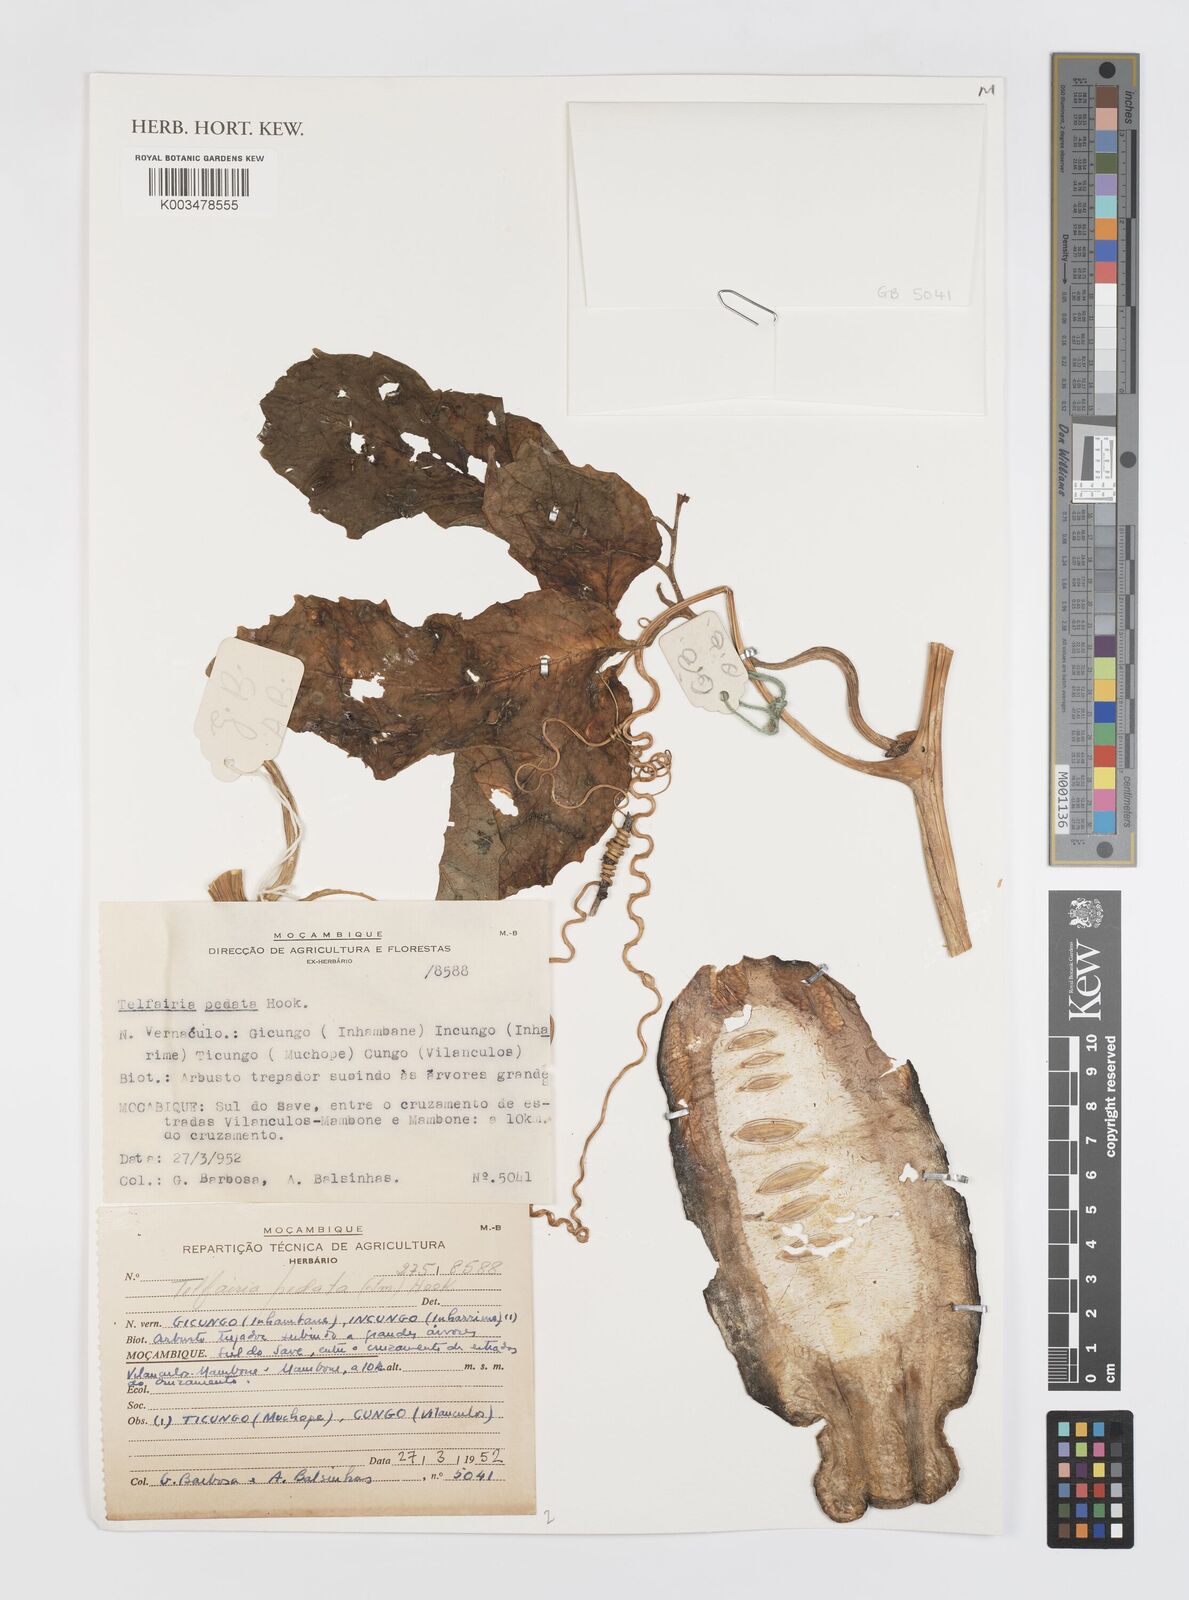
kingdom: Plantae
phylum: Tracheophyta
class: Magnoliopsida
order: Cucurbitales
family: Cucurbitaceae
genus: Telfairia
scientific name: Telfairia pedata
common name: Zanzibar oilvine
